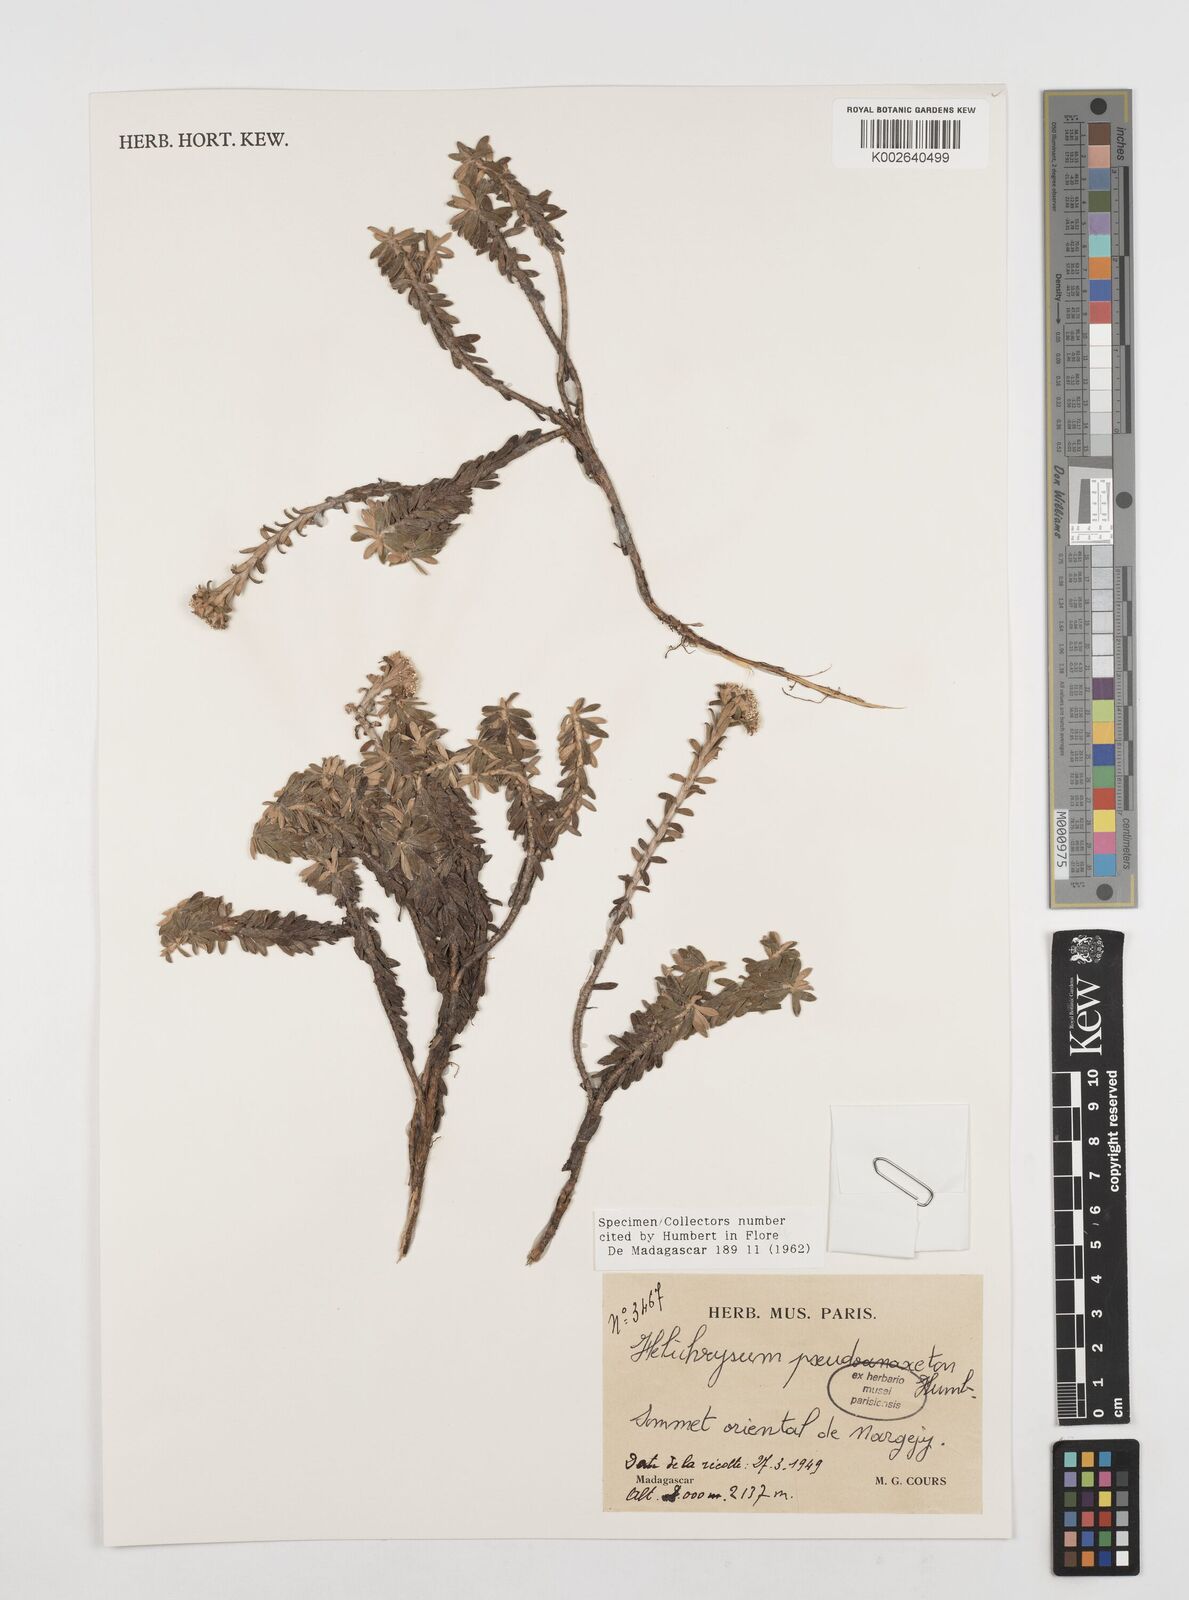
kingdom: Plantae
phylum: Tracheophyta
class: Magnoliopsida
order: Asterales
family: Asteraceae
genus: Helichrysum
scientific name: Helichrysum pseudoanaxeton
